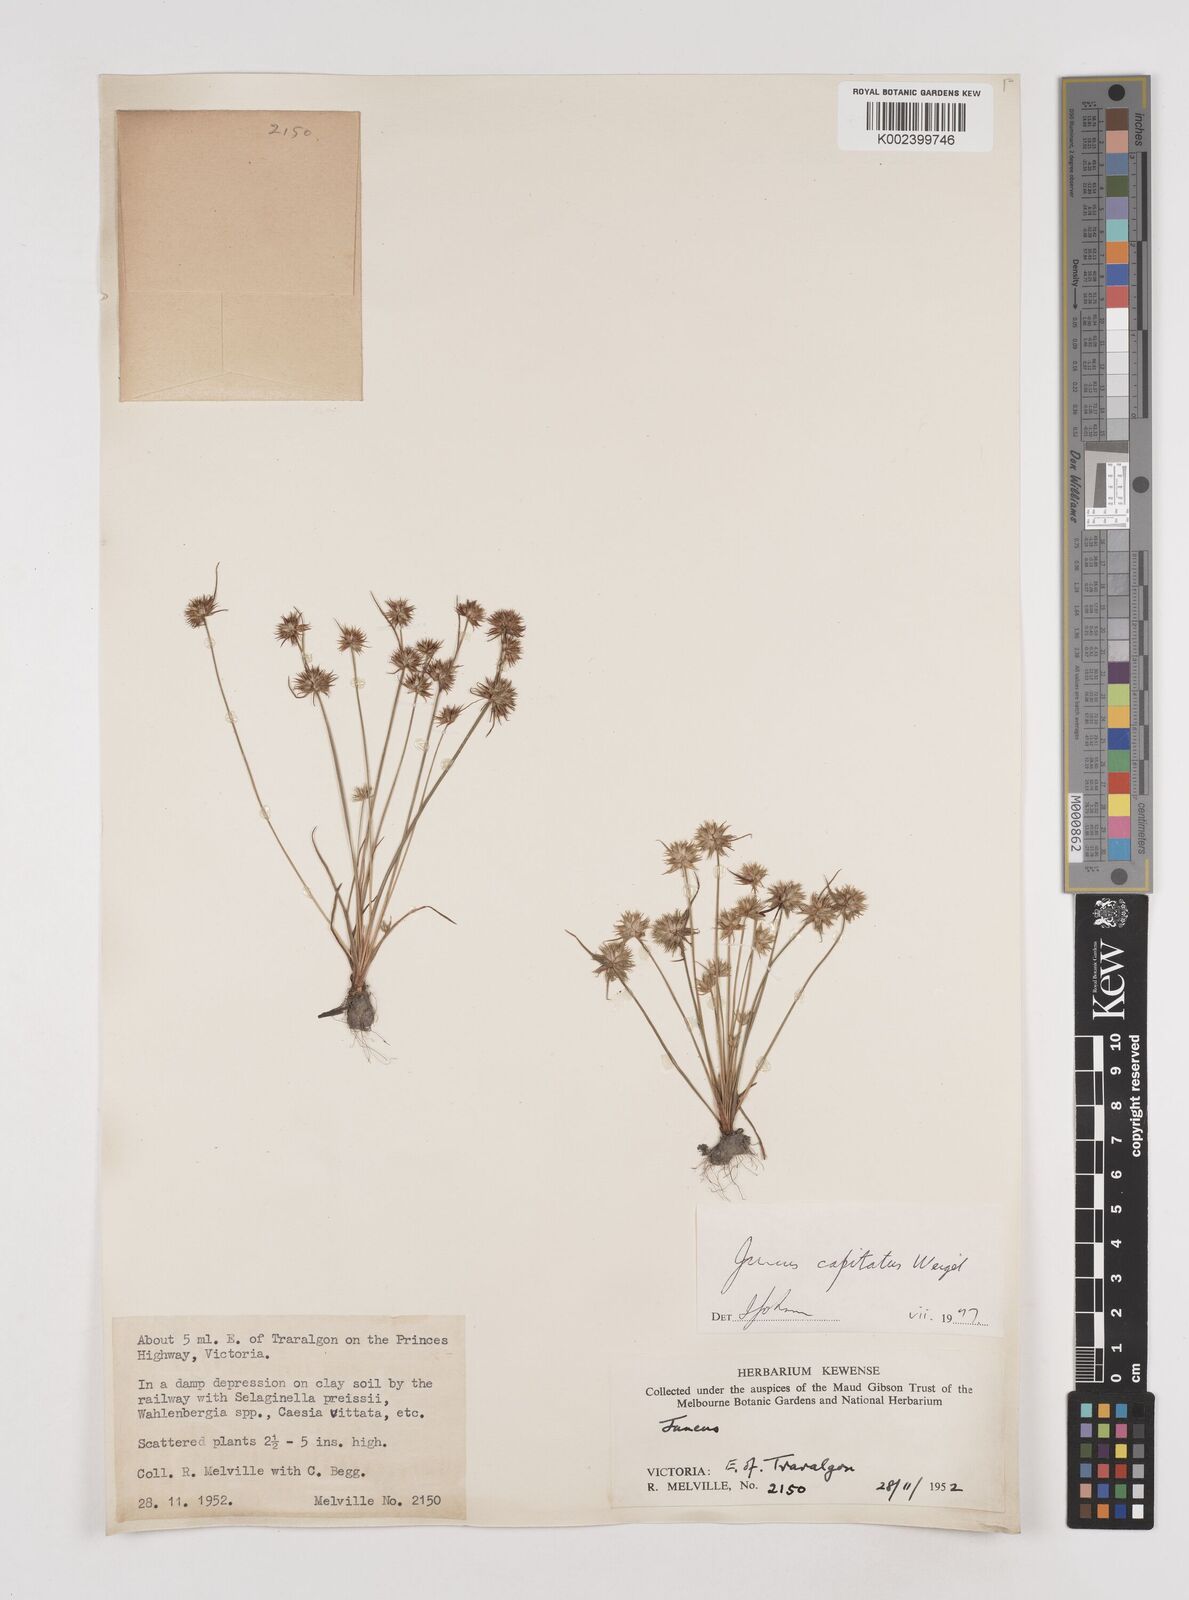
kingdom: Plantae
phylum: Tracheophyta
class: Liliopsida
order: Poales
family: Juncaceae
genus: Juncus
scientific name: Juncus capitatus
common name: Dwarf rush
